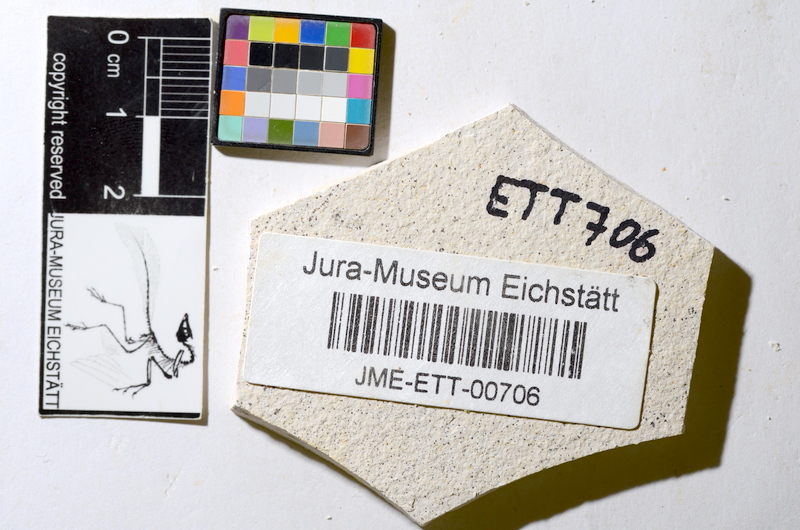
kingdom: Animalia
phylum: Chordata
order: Salmoniformes
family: Orthogonikleithridae
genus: Orthogonikleithrus
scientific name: Orthogonikleithrus hoelli
